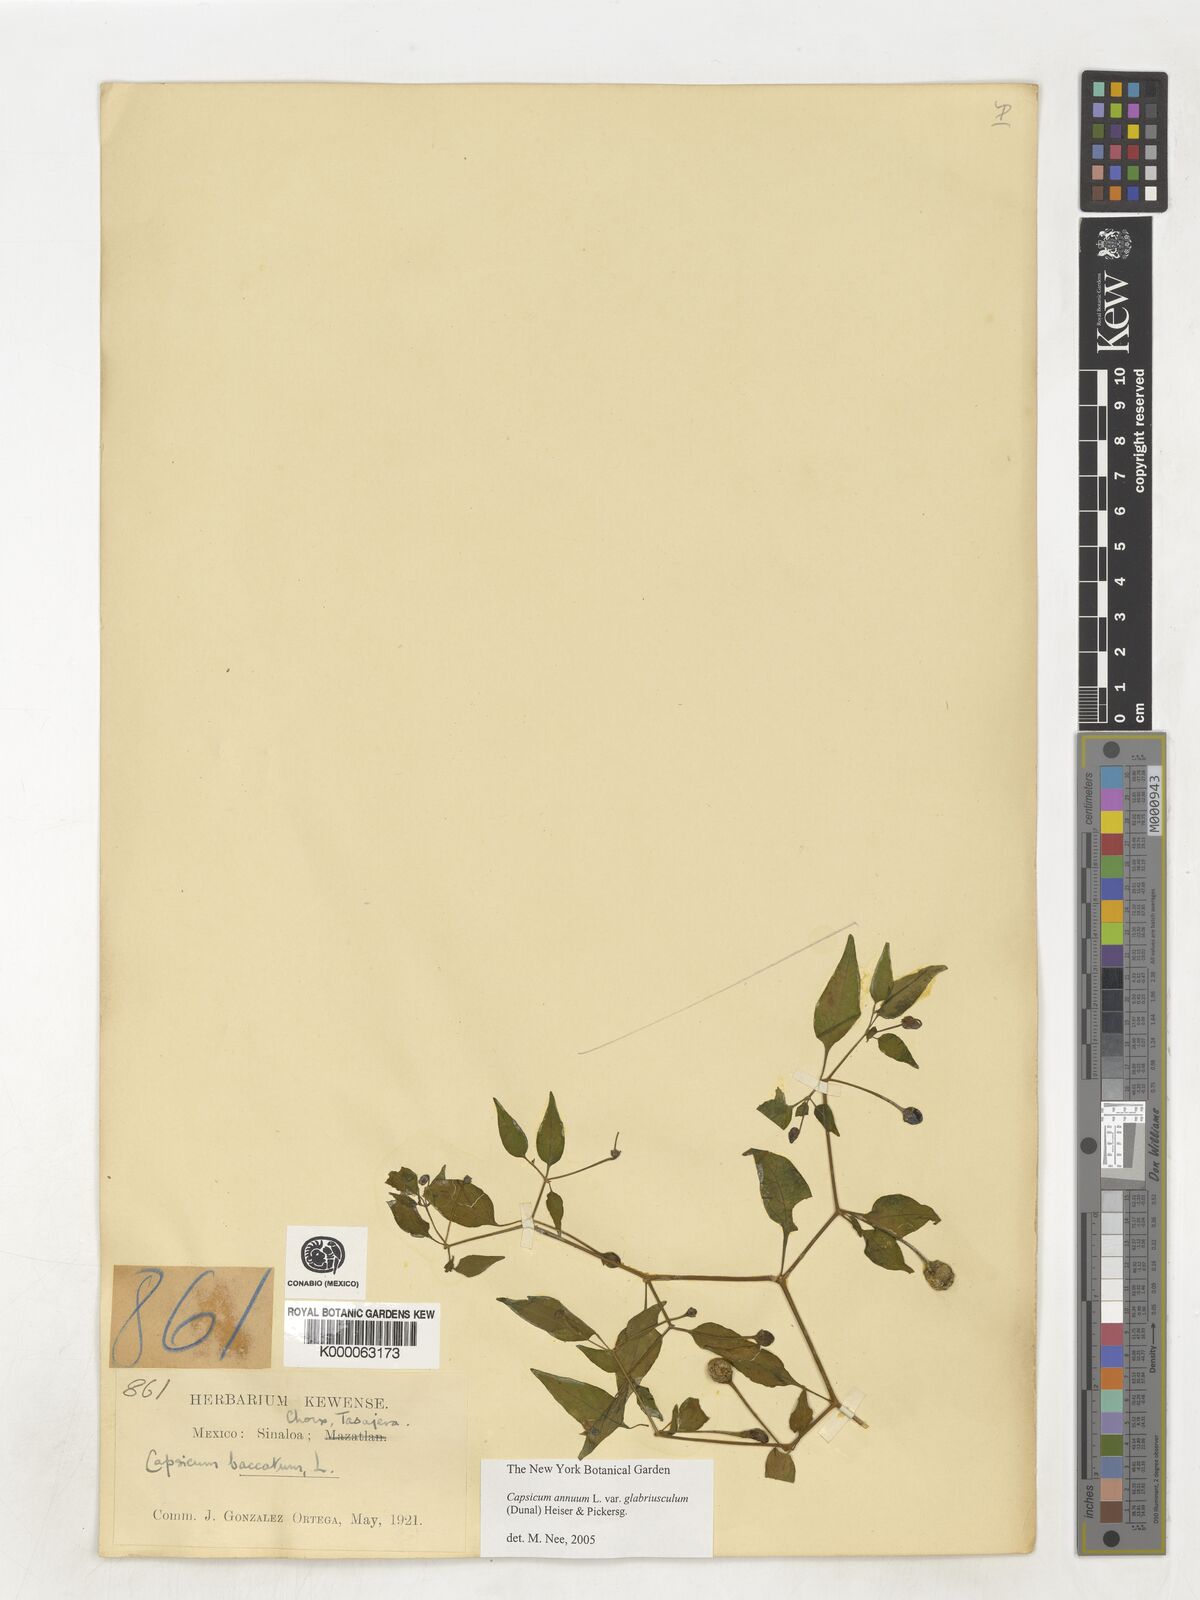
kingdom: Plantae
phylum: Tracheophyta
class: Magnoliopsida
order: Solanales
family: Solanaceae
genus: Capsicum
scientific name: Capsicum baccatum
